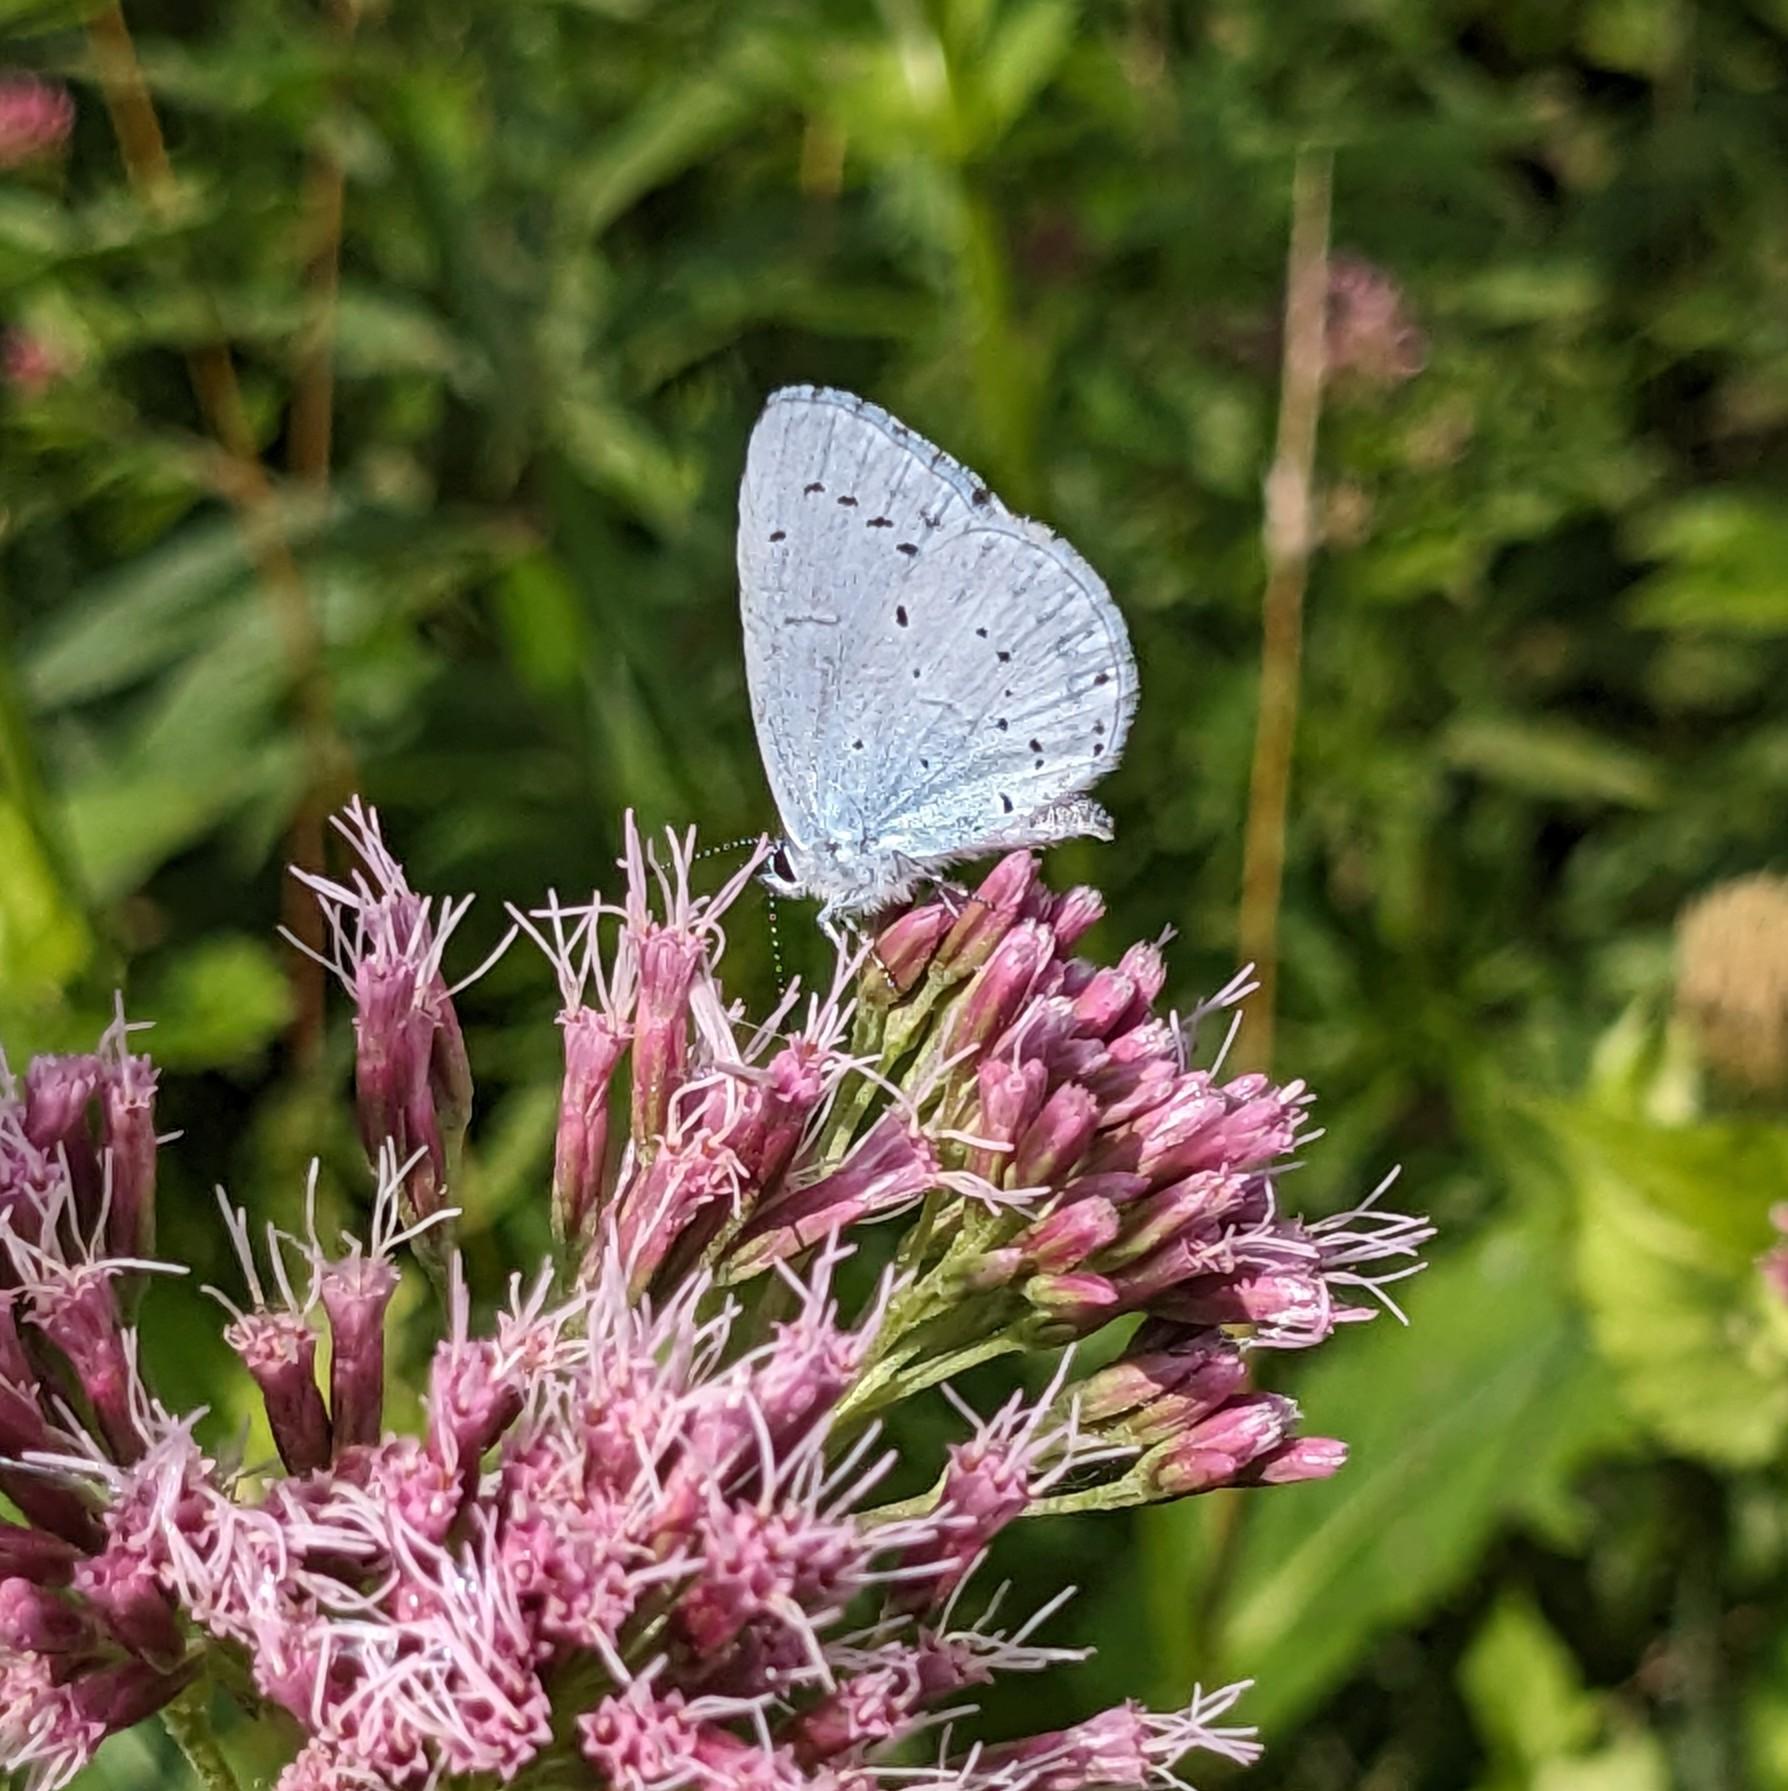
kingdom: Animalia
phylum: Arthropoda
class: Insecta
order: Lepidoptera
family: Lycaenidae
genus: Celastrina
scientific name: Celastrina argiolus
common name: Skovblåfugl
